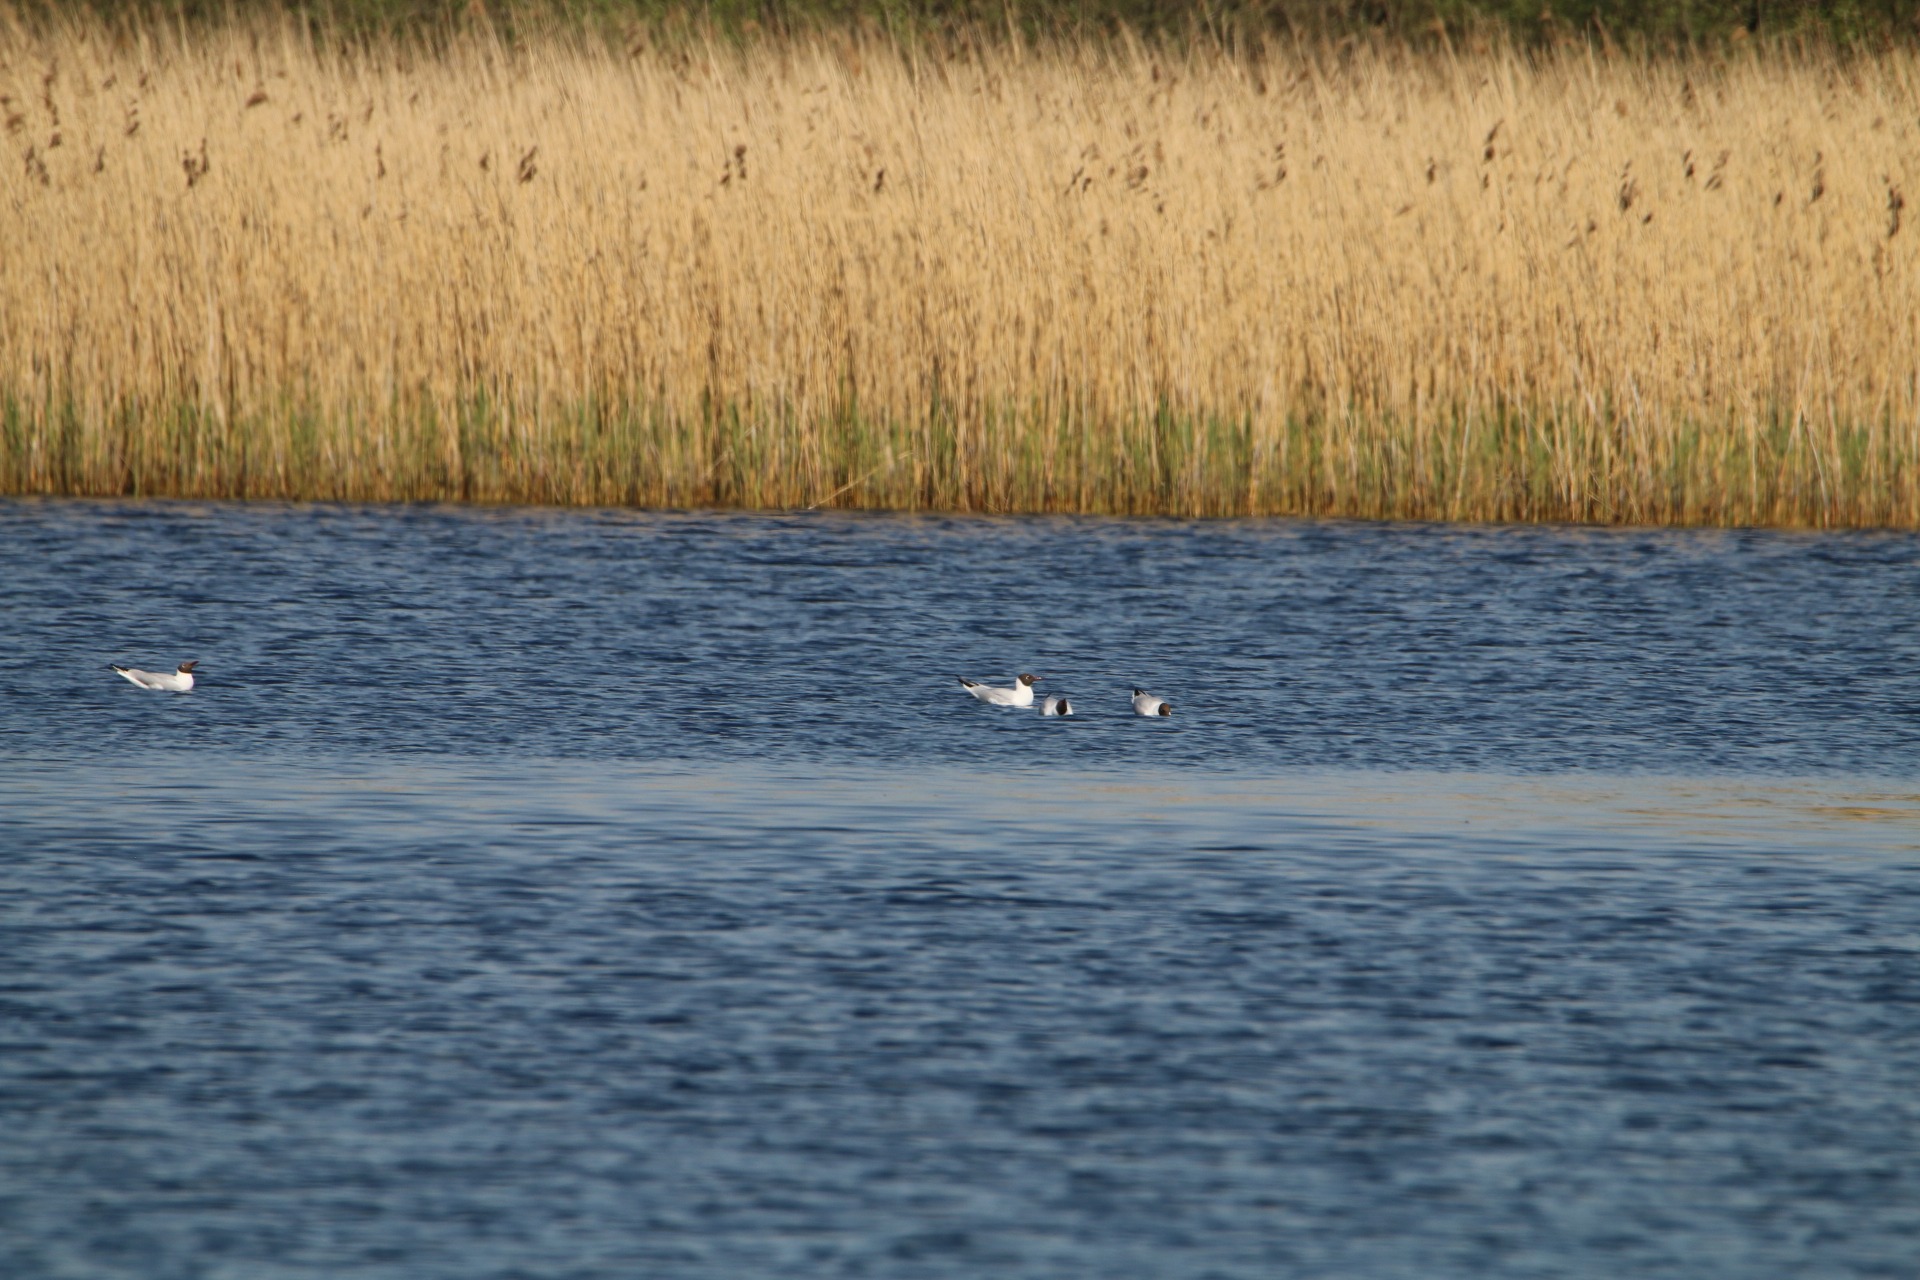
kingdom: Animalia
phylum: Chordata
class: Aves
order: Charadriiformes
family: Laridae
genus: Chroicocephalus
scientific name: Chroicocephalus ridibundus
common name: Hættemåge
